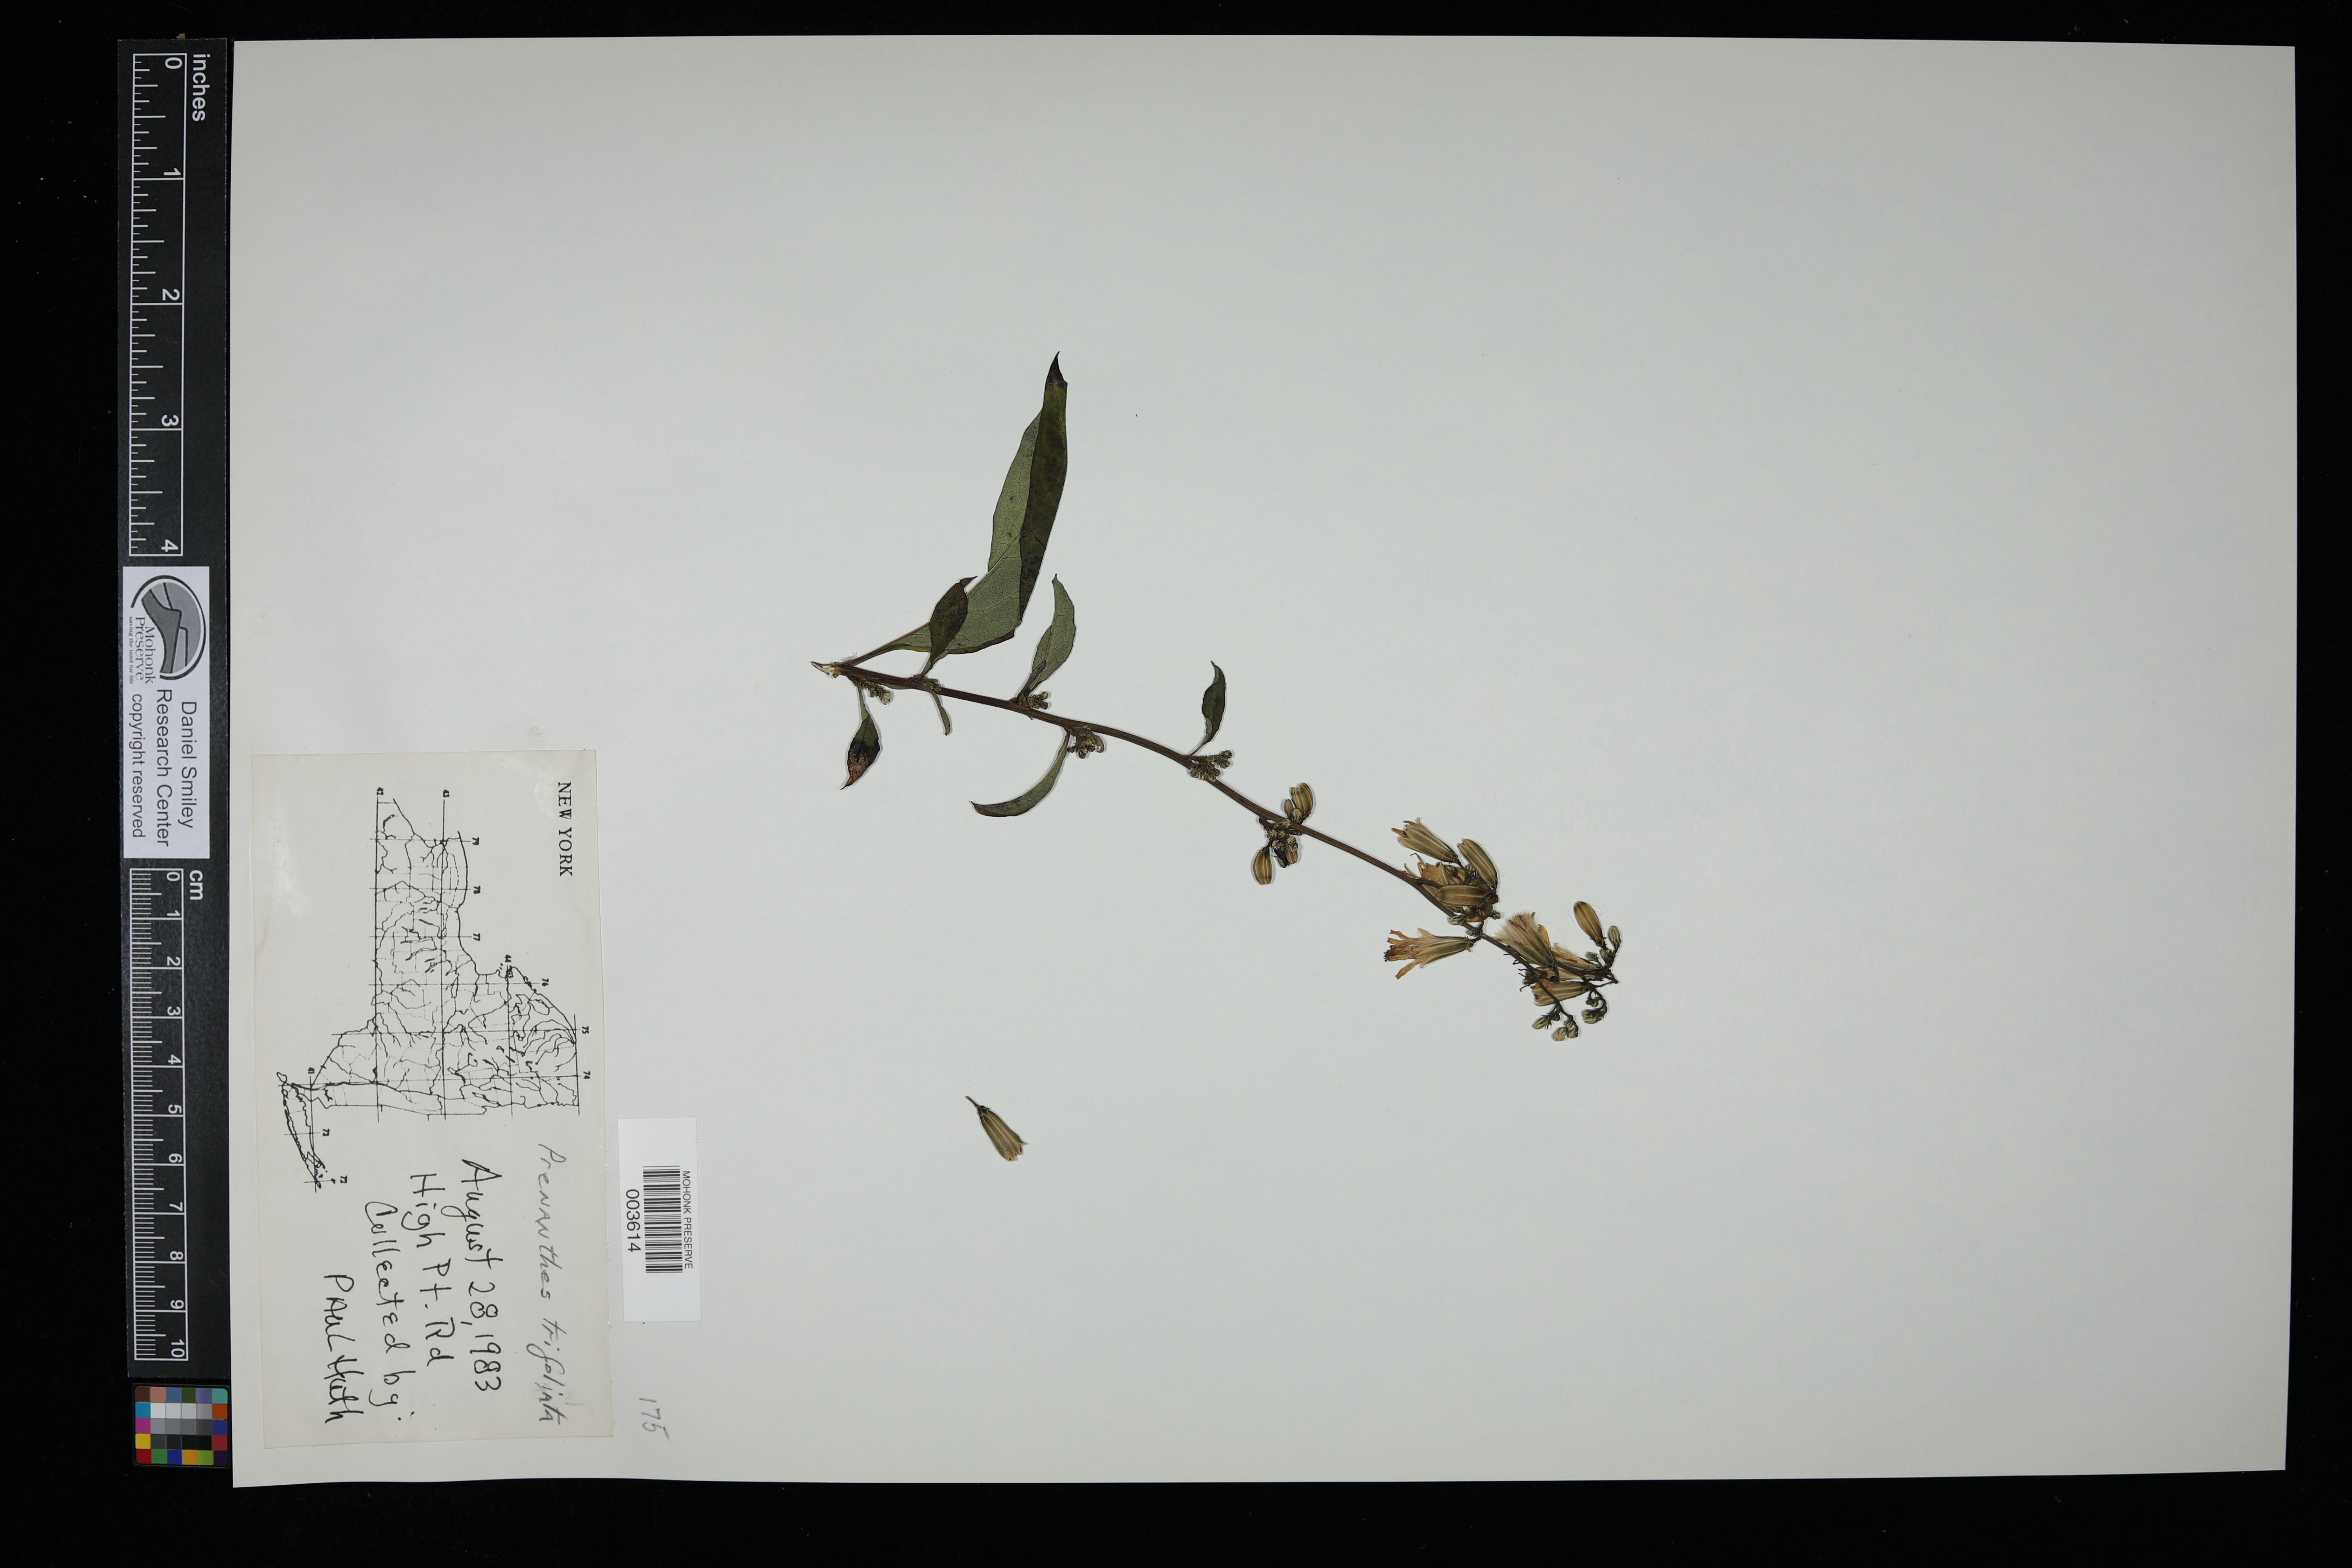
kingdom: Plantae
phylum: Tracheophyta
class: Magnoliopsida
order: Asterales
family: Asteraceae
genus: Nabalus
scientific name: Nabalus trifoliolatus
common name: Gall-of-the-earth
